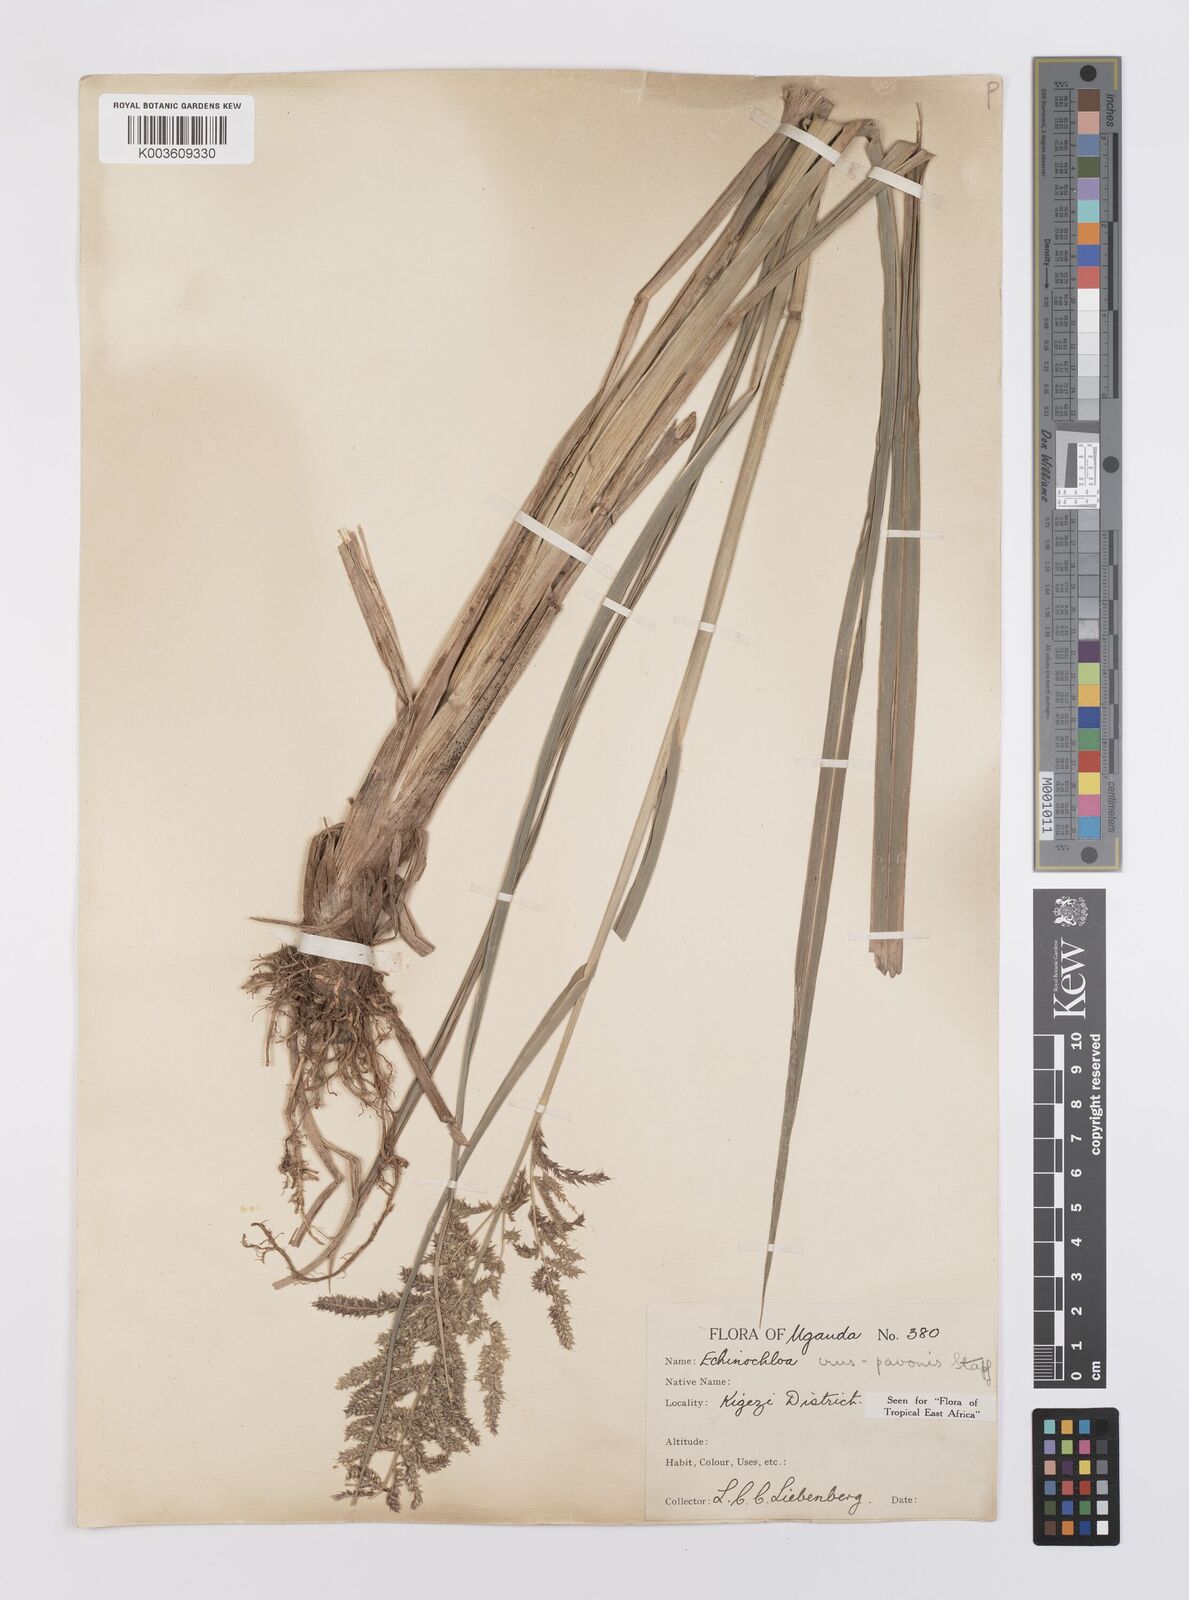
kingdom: Plantae
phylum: Tracheophyta
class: Liliopsida
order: Poales
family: Poaceae
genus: Echinochloa
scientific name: Echinochloa crus-pavonis
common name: Gulf cockspur grass
